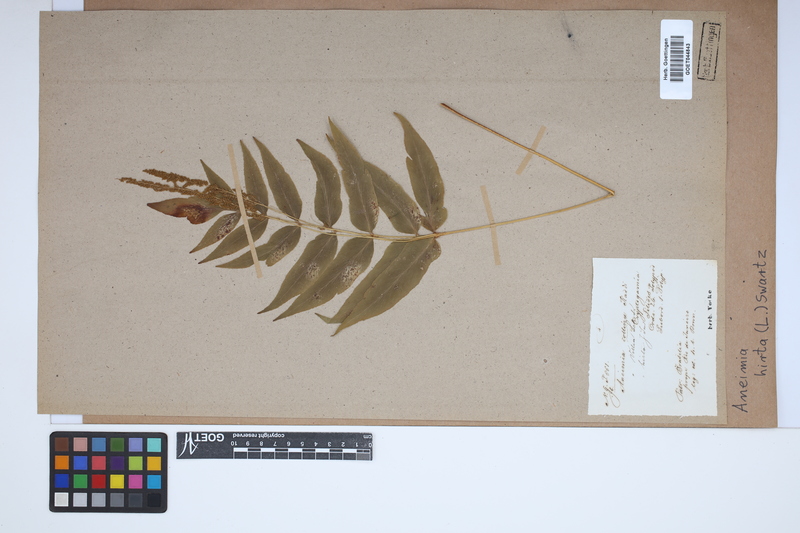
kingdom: Plantae
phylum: Tracheophyta
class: Polypodiopsida
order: Schizaeales
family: Anemiaceae
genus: Anemia
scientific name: Anemia hirta
